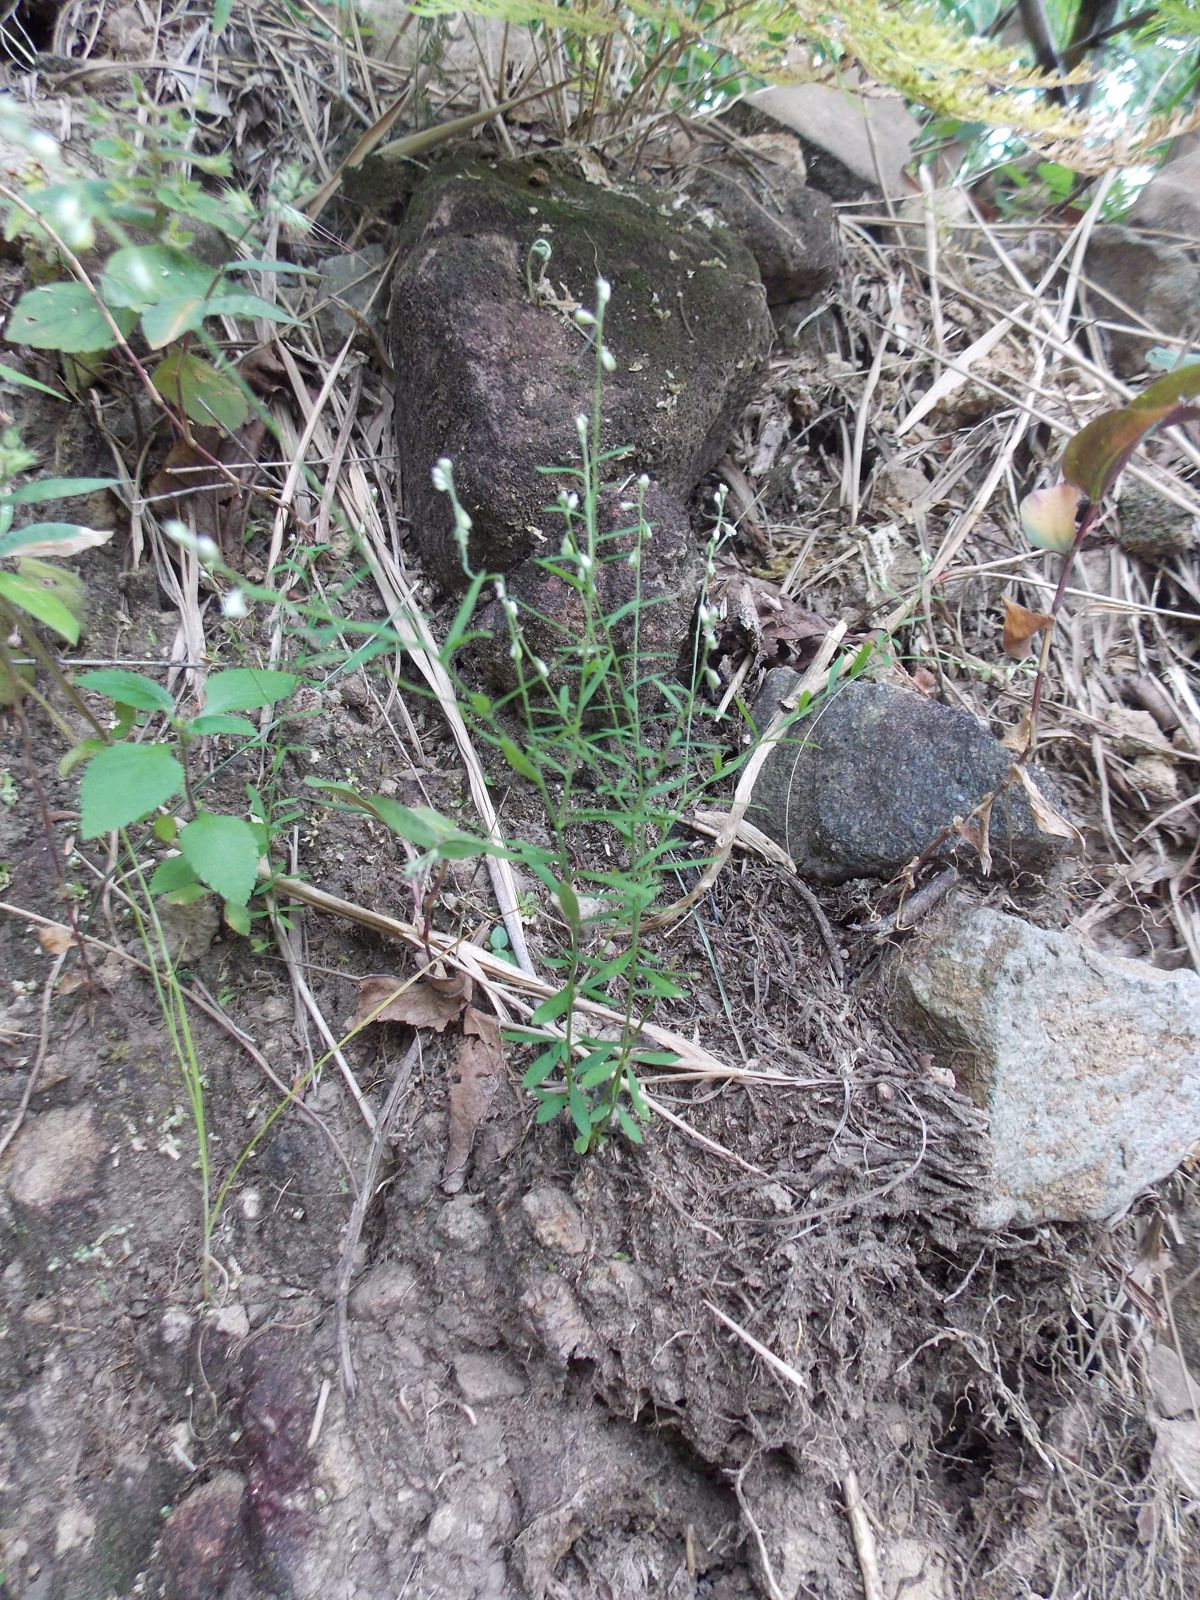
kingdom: Plantae
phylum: Tracheophyta
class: Magnoliopsida
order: Fabales
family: Polygalaceae
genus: Polygala
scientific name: Polygala exilis
